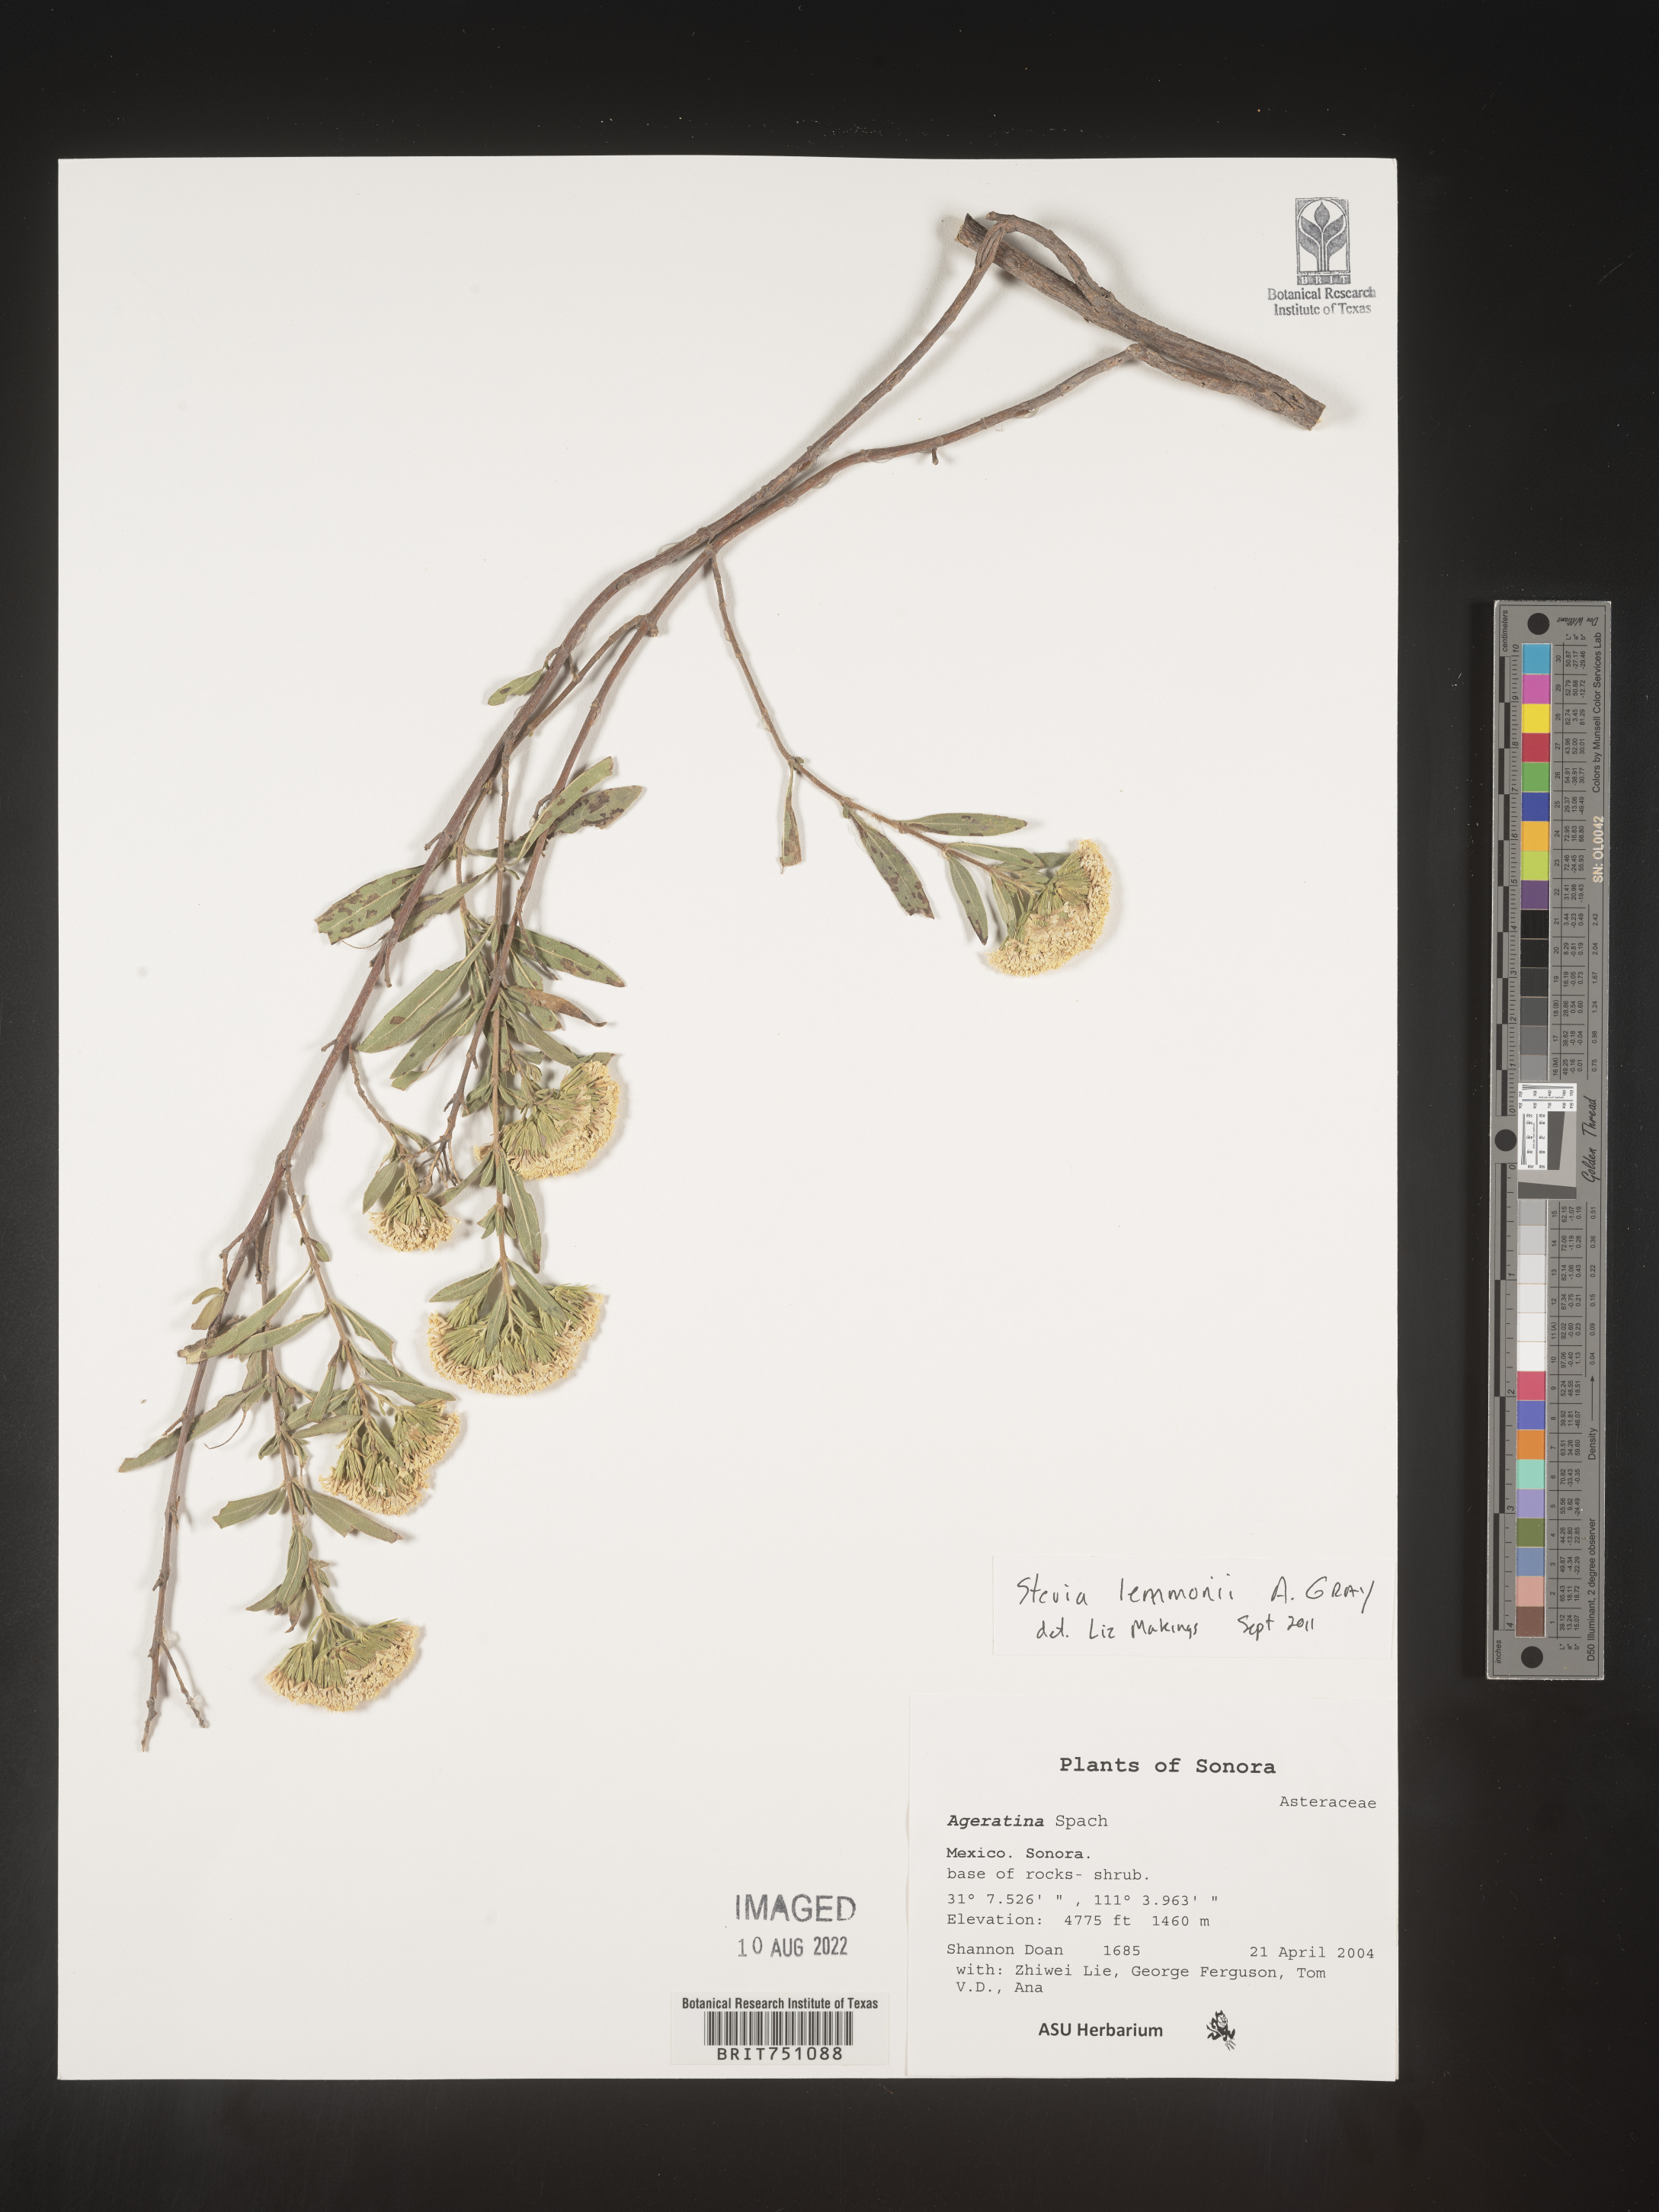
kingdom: Plantae
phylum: Tracheophyta
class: Magnoliopsida
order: Asterales
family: Asteraceae
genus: Stevia
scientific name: Stevia
